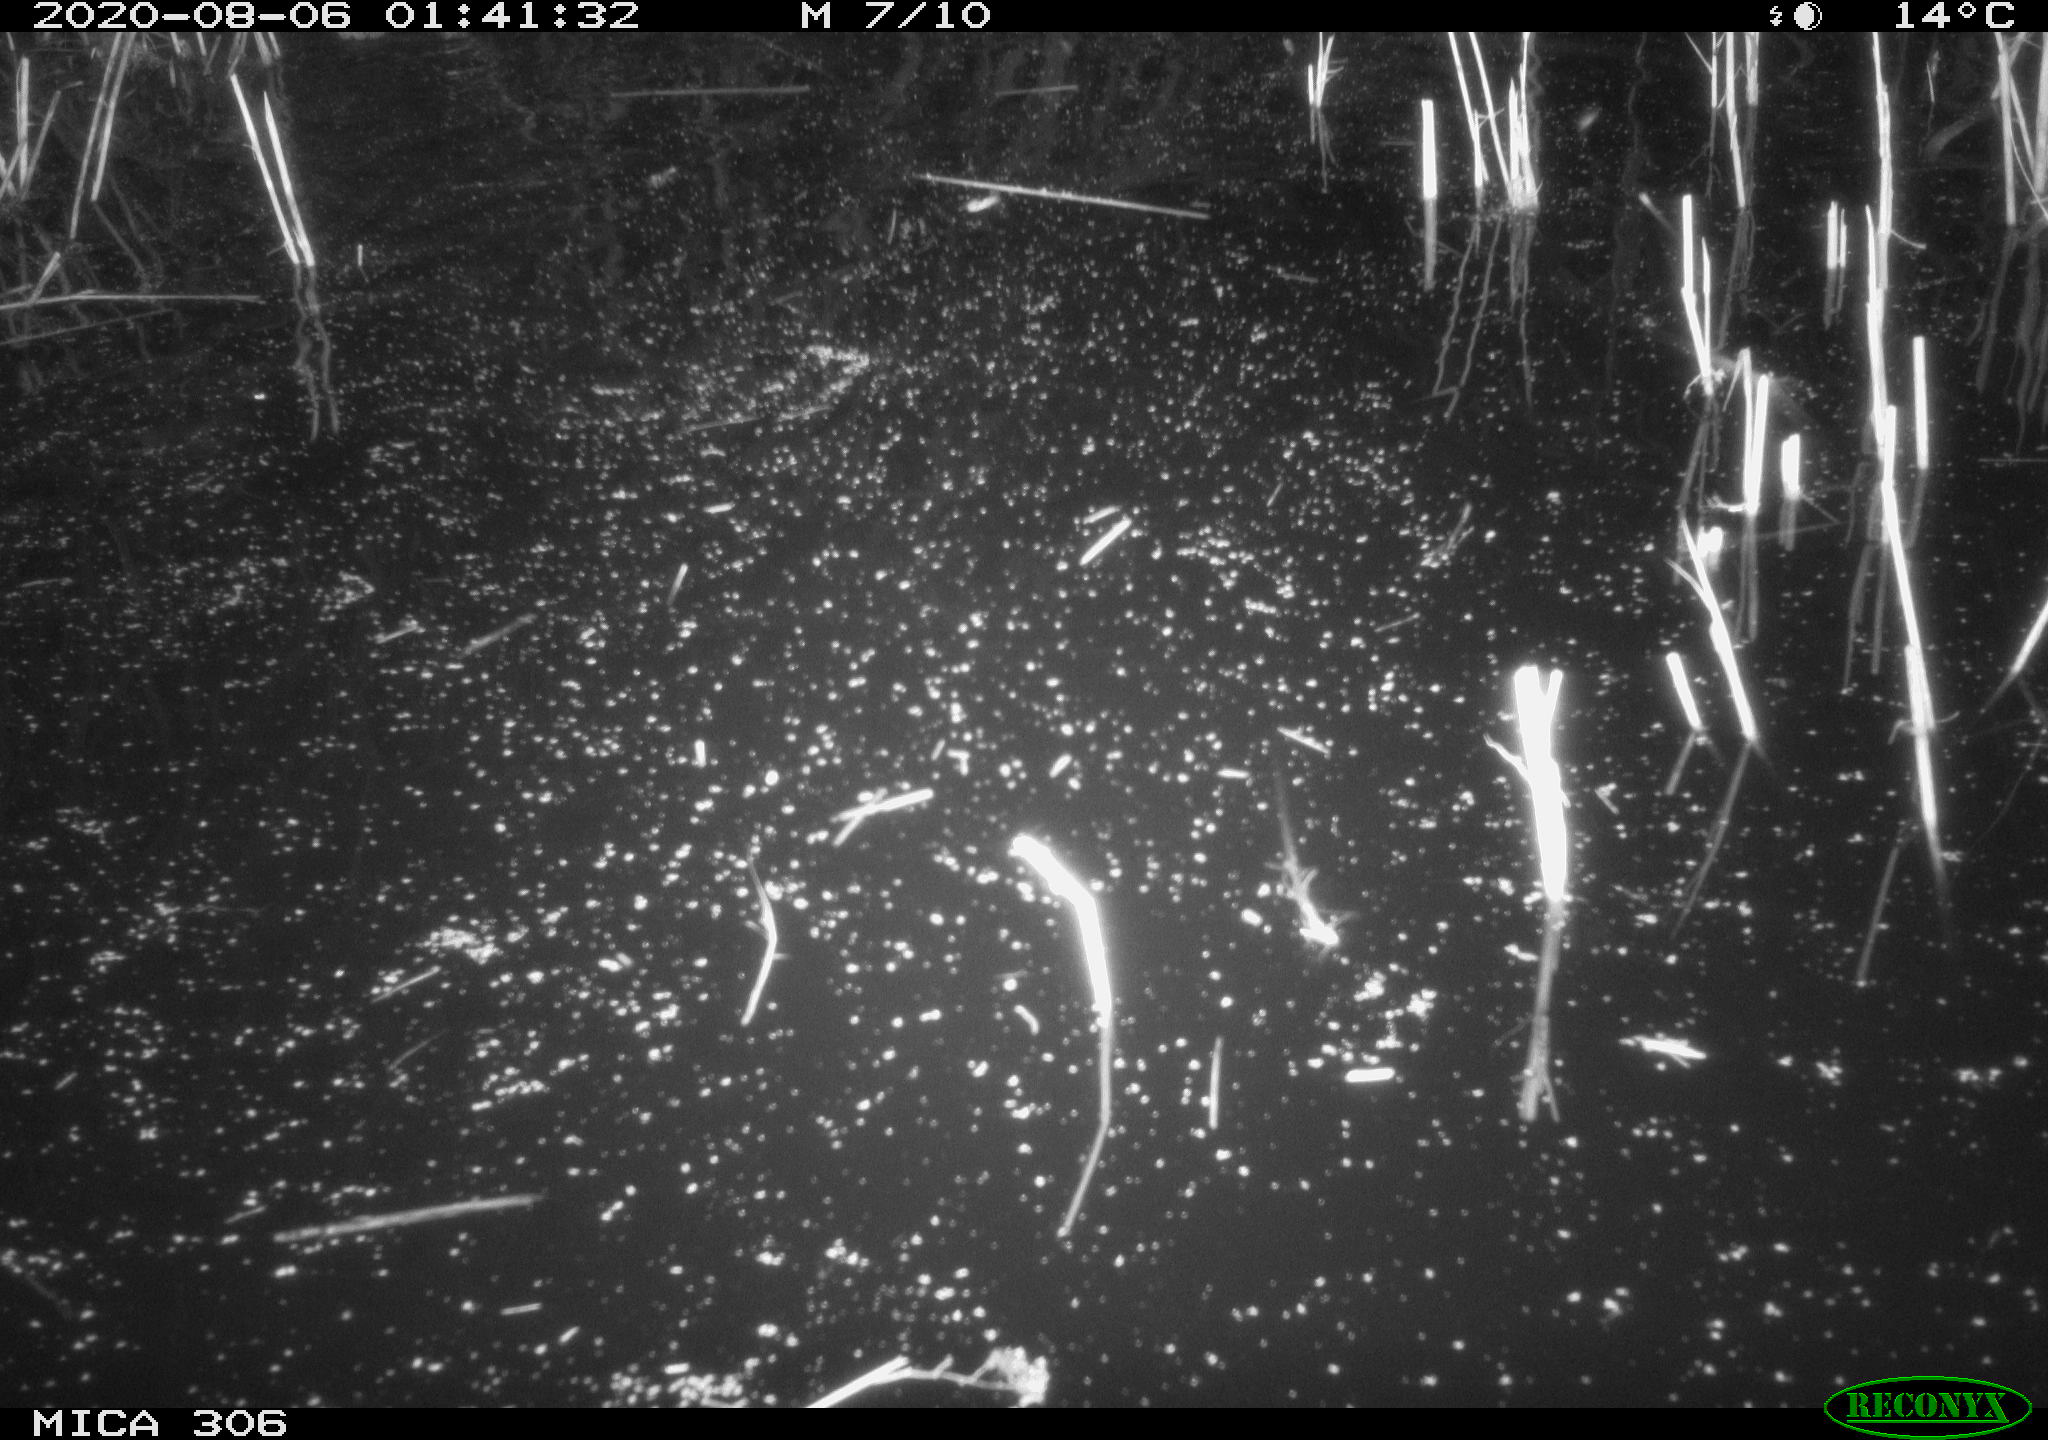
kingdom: Animalia
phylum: Chordata
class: Mammalia
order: Rodentia
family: Muridae
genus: Rattus
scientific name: Rattus norvegicus
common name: Brown rat
